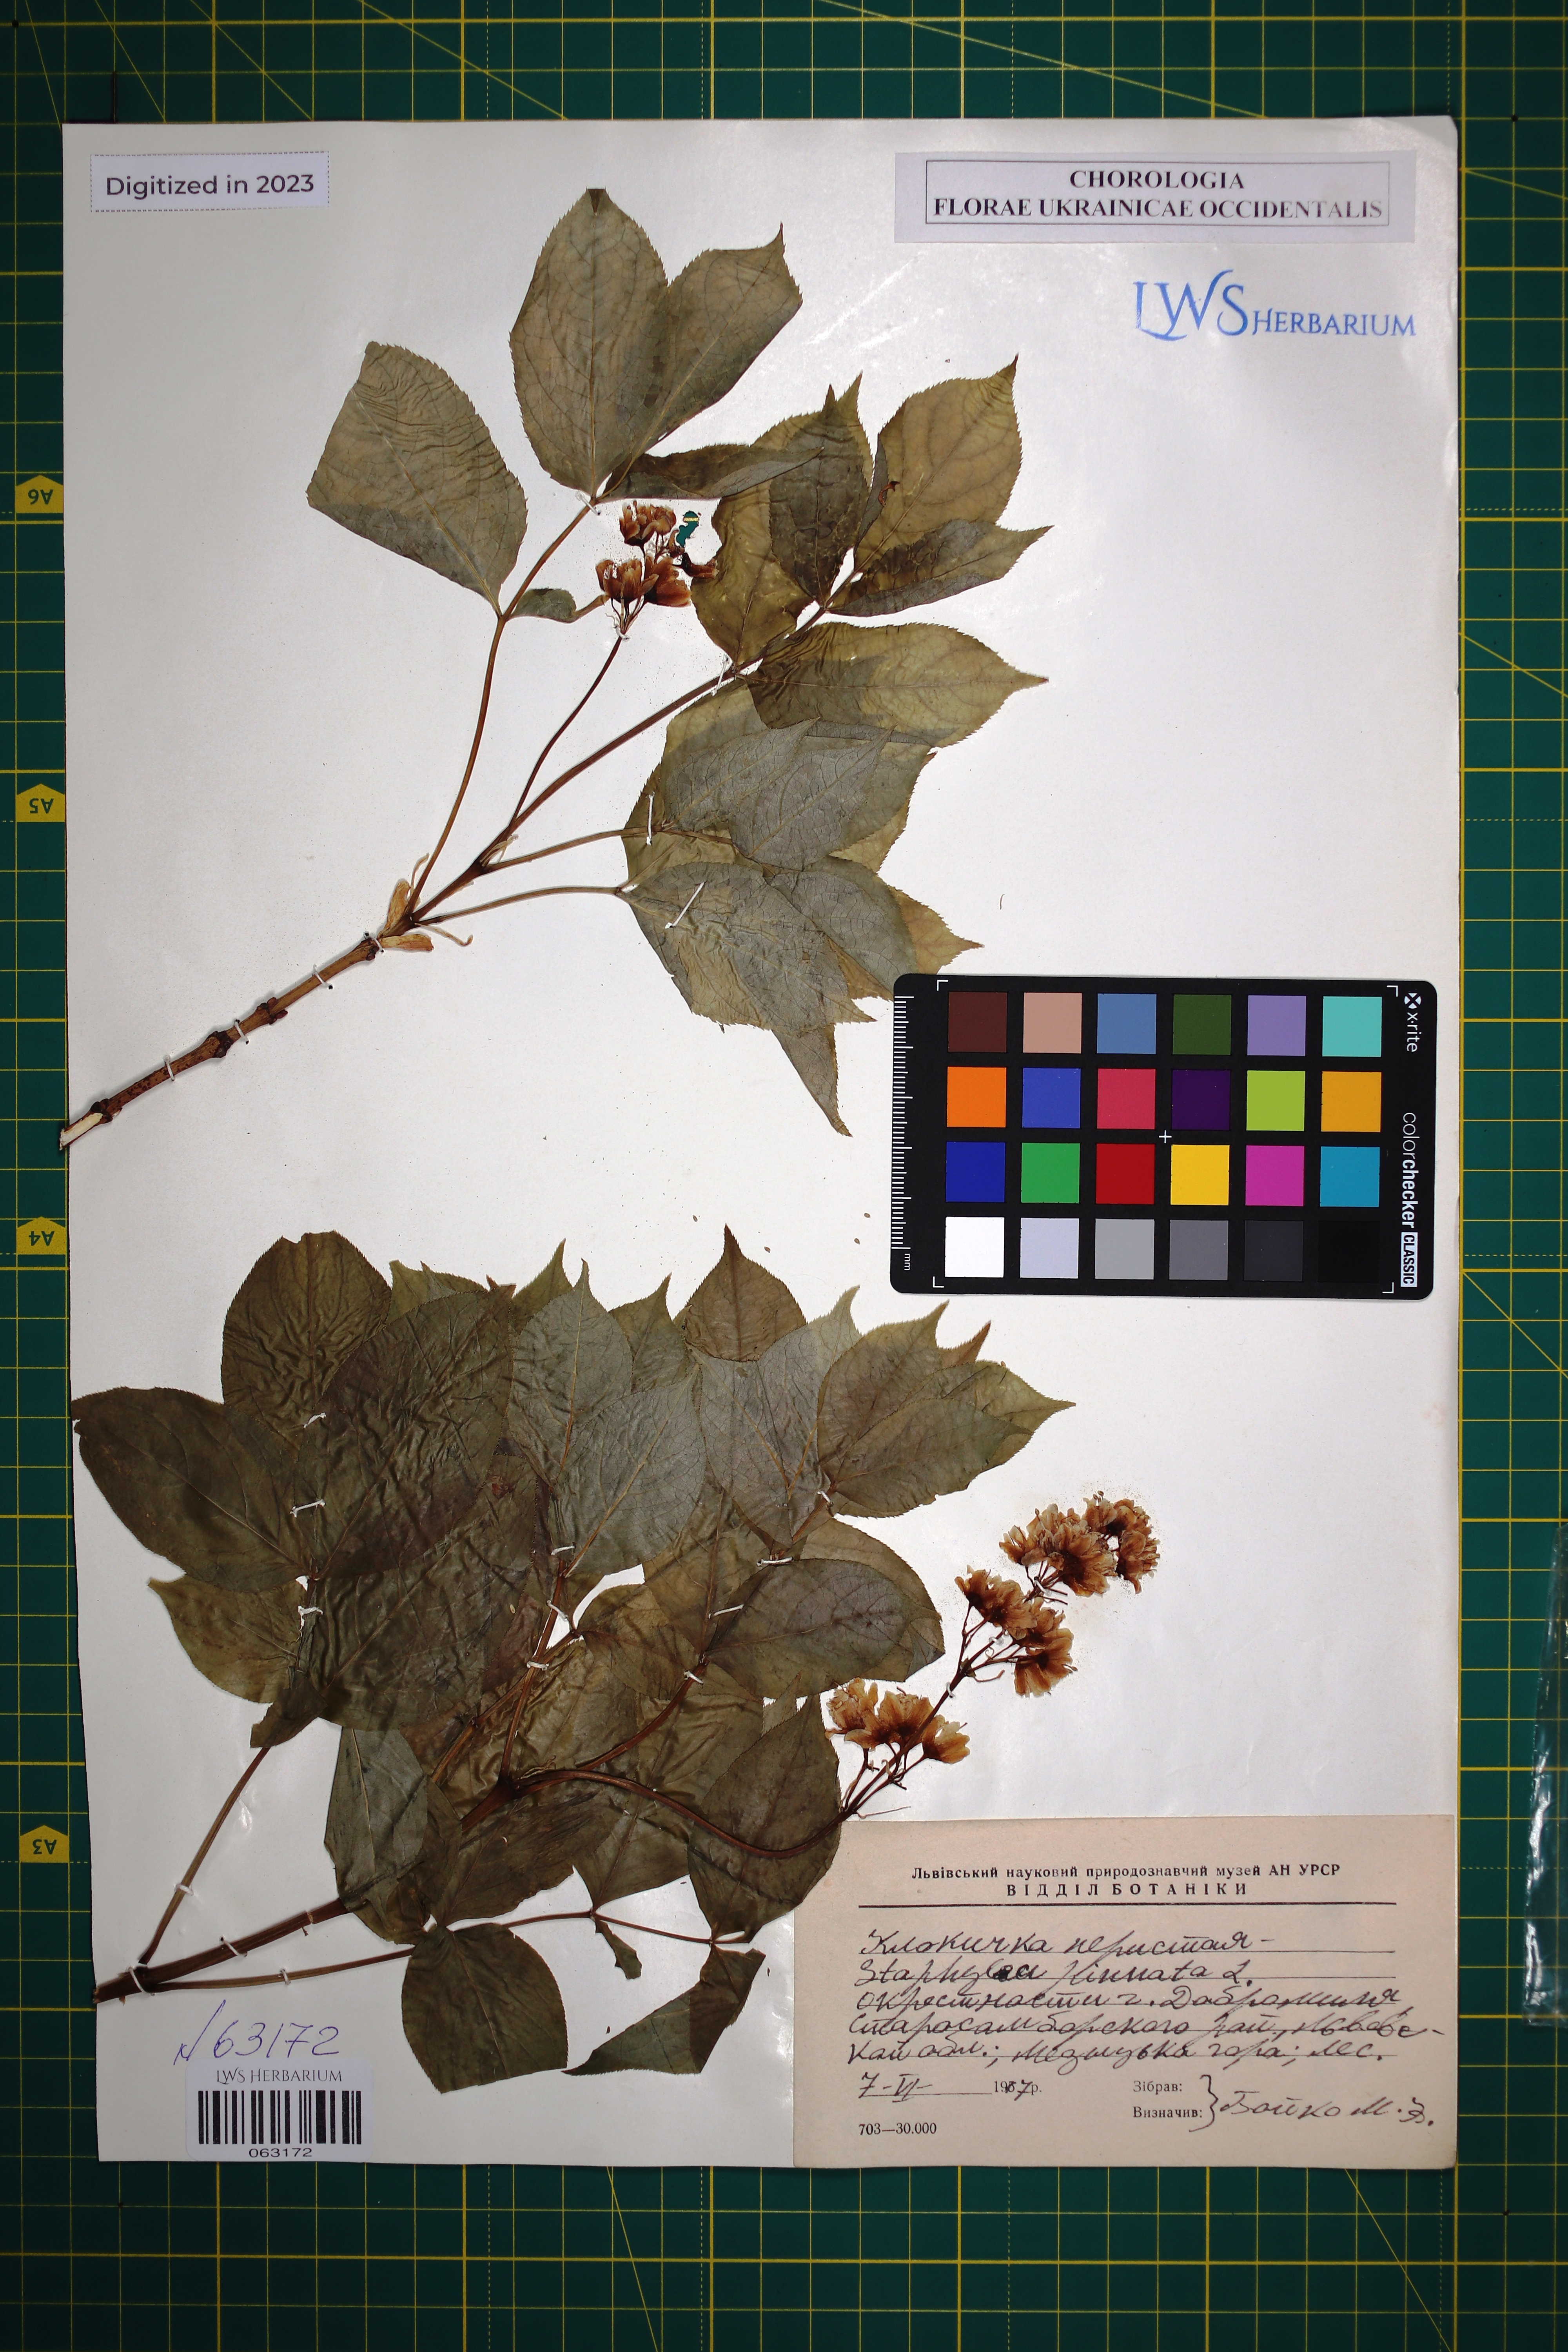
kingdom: Plantae
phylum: Tracheophyta
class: Magnoliopsida
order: Crossosomatales
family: Staphyleaceae
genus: Staphylea
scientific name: Staphylea pinnata
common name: Bladdernut
